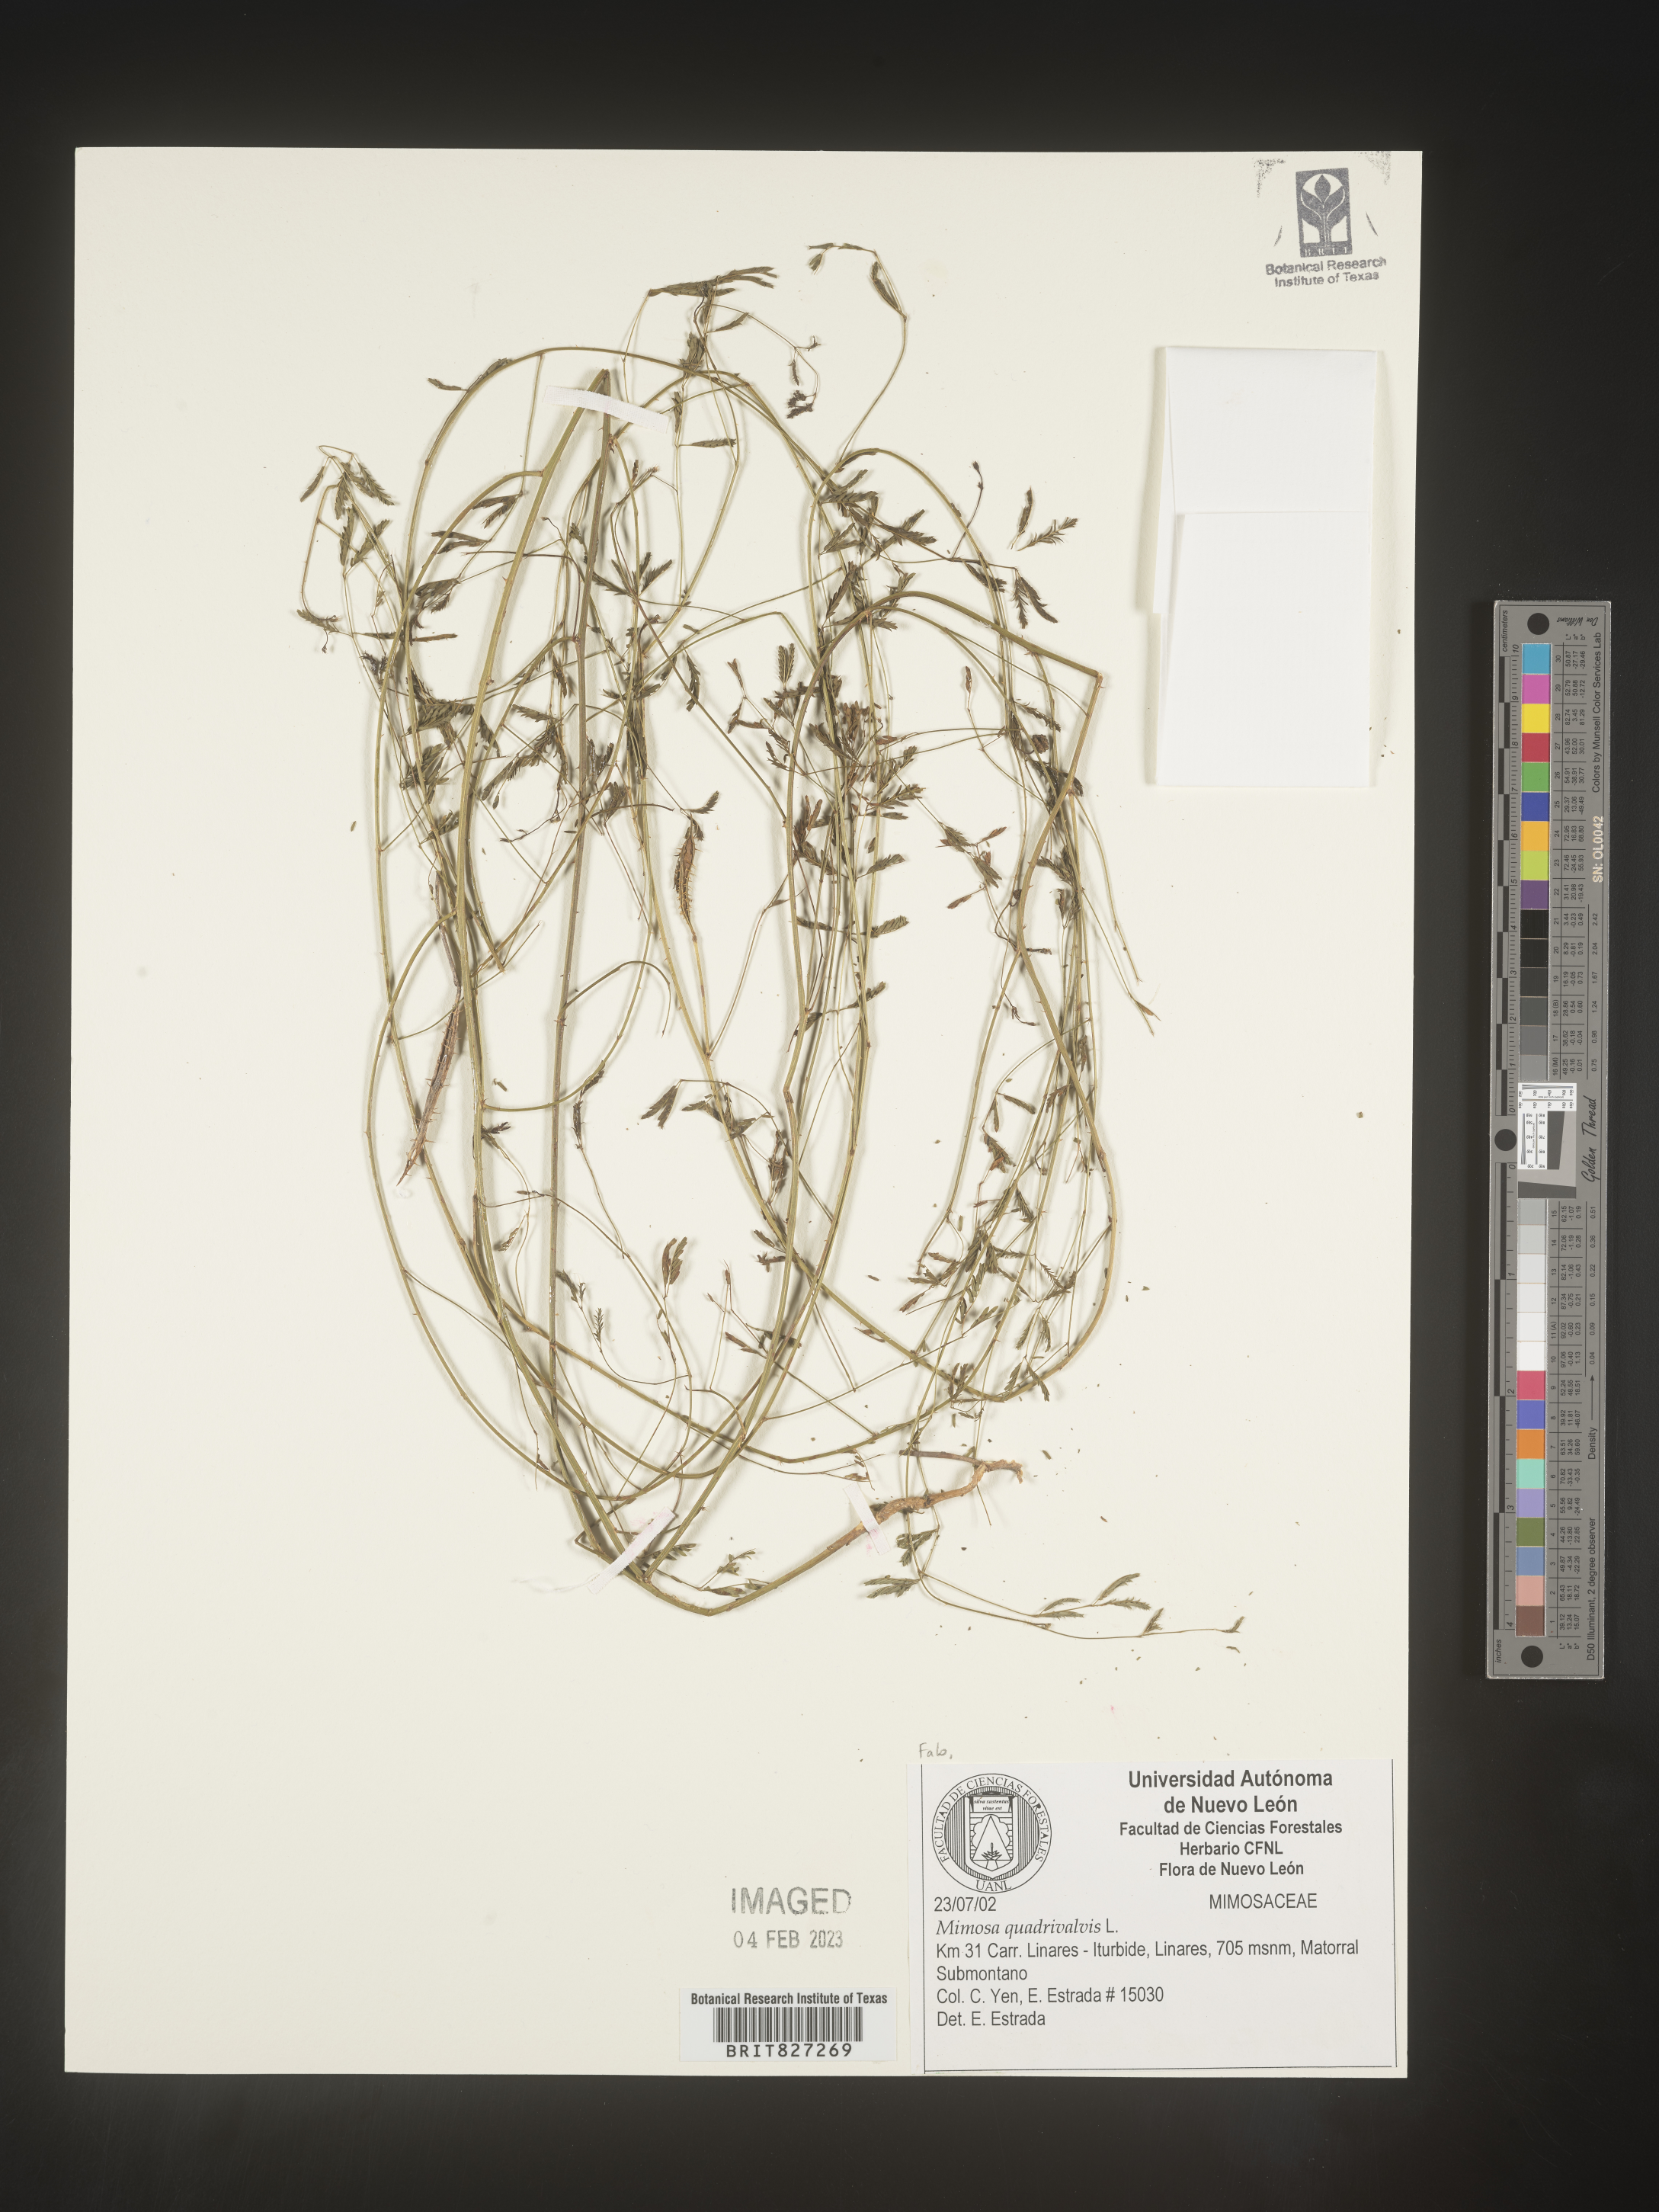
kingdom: Plantae
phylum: Tracheophyta
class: Magnoliopsida
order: Fabales
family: Fabaceae
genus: Mimosa
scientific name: Mimosa
